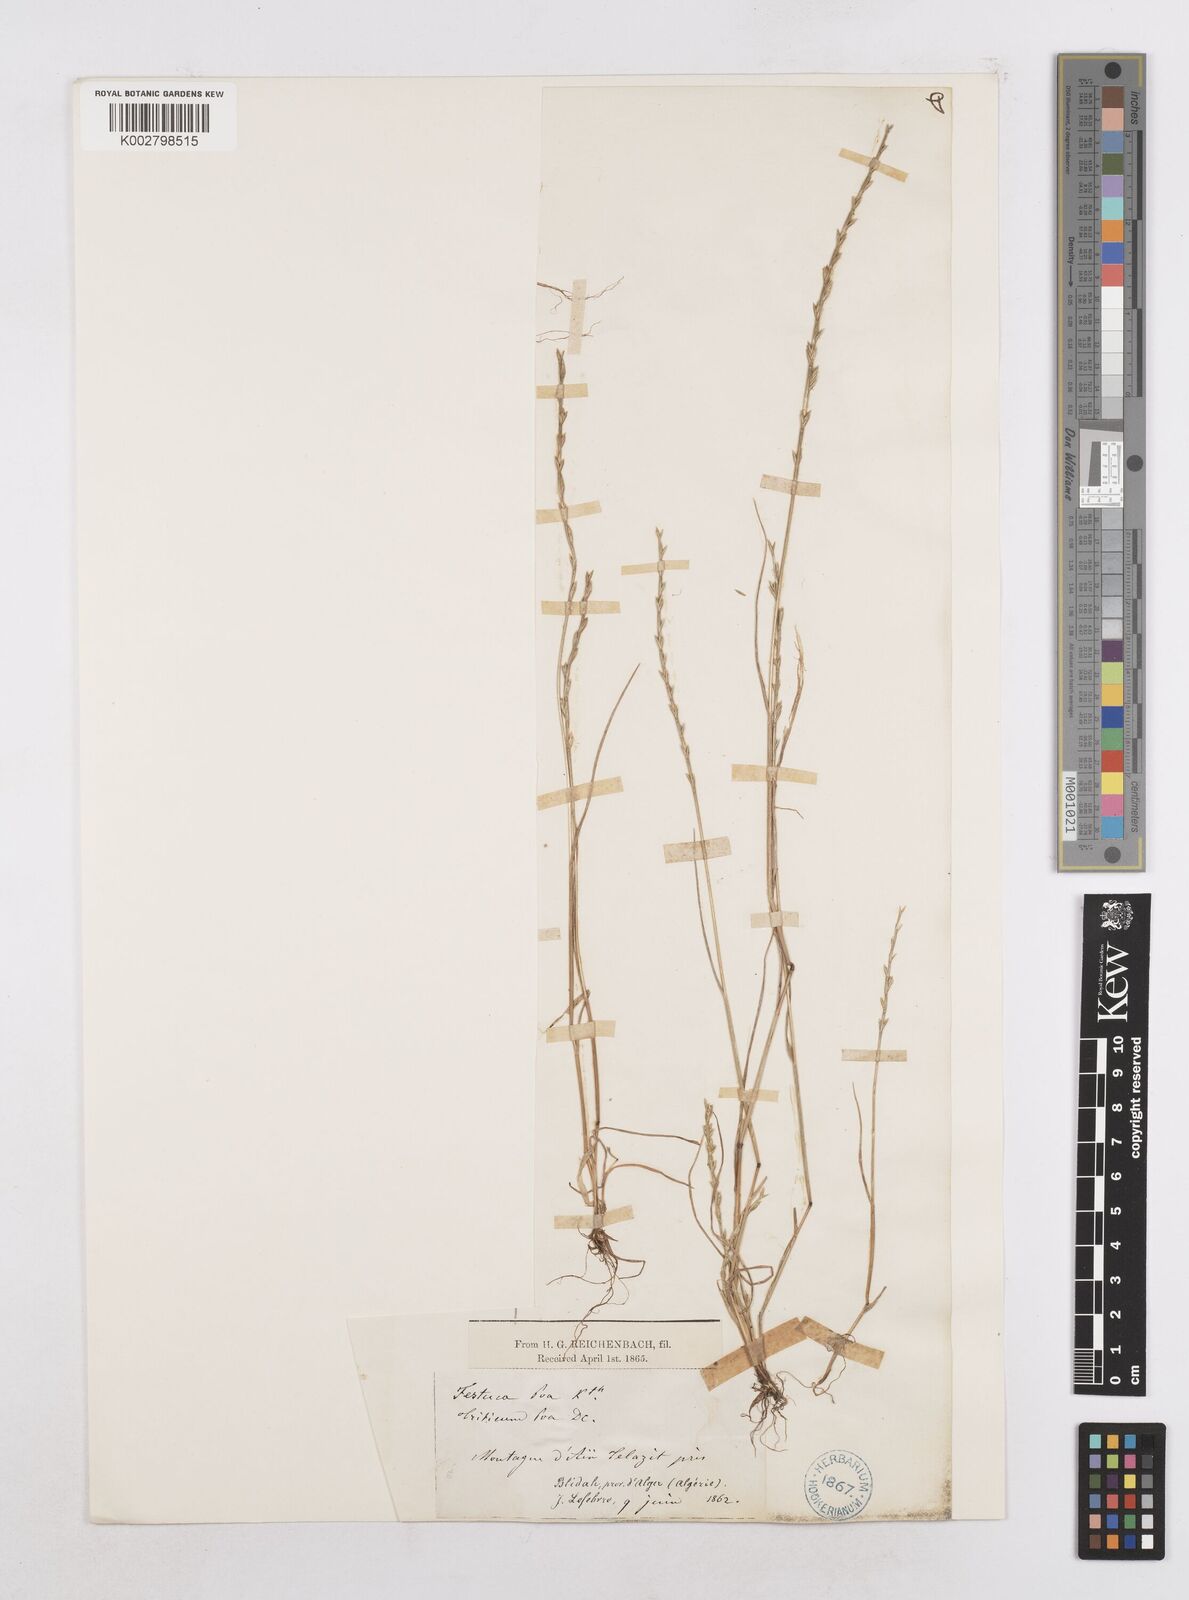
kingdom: Plantae
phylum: Tracheophyta
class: Liliopsida
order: Poales
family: Poaceae
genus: Festuca
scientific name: Festuca lachenalii
